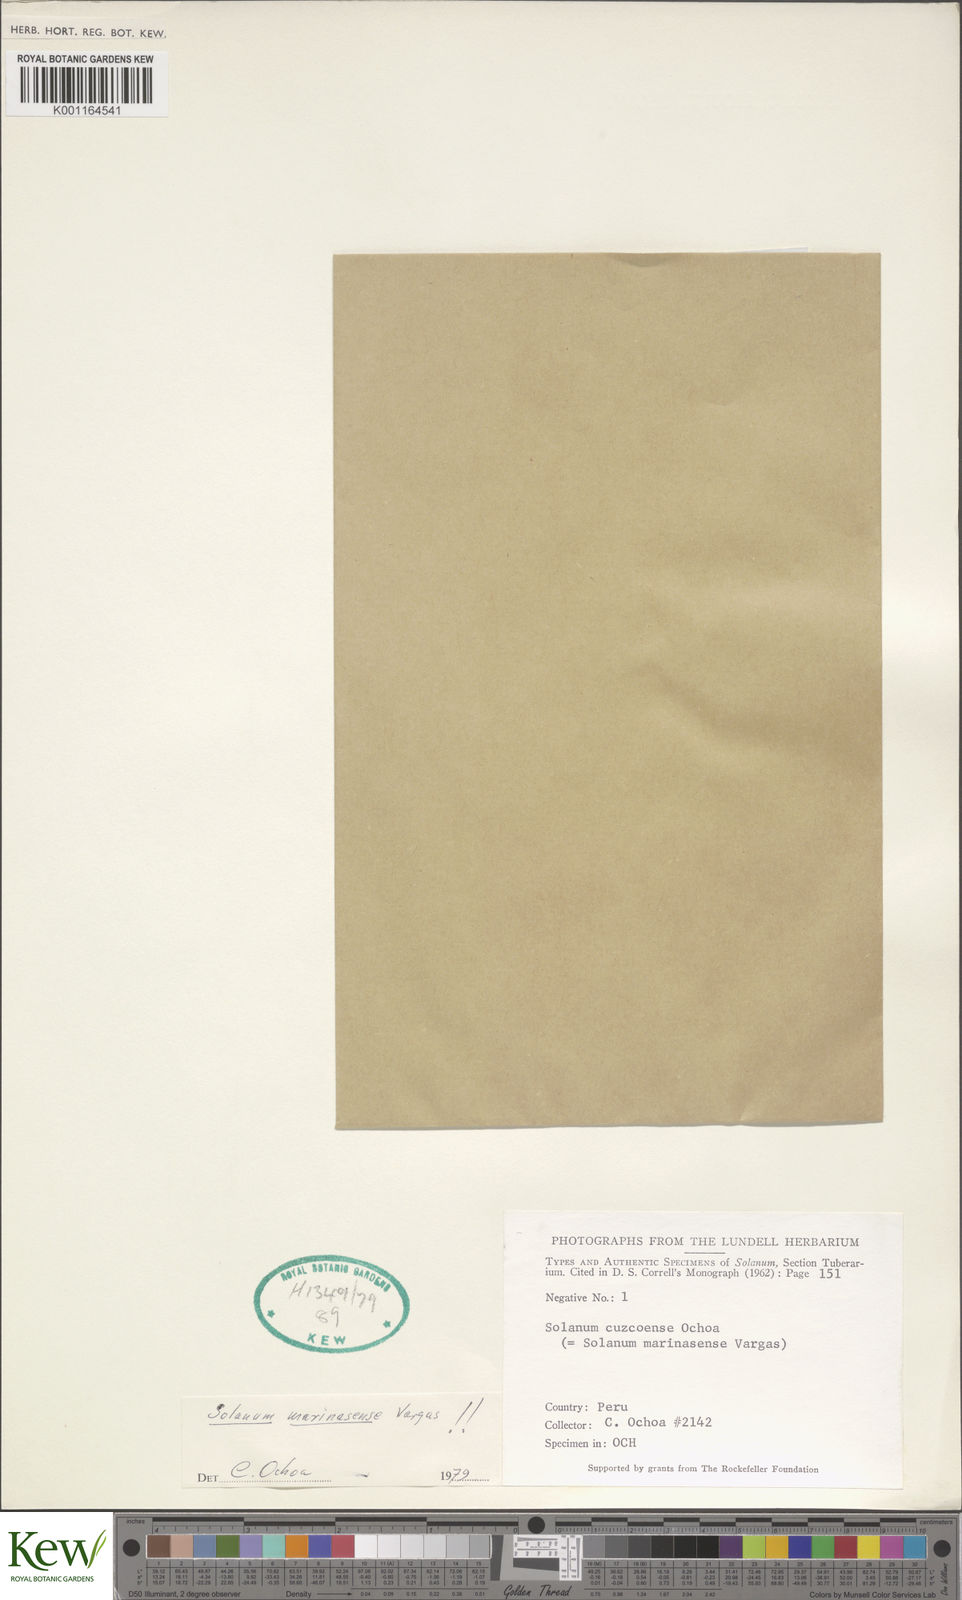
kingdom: Plantae
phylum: Tracheophyta
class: Magnoliopsida
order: Solanales
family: Solanaceae
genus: Solanum
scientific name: Solanum candolleanum
